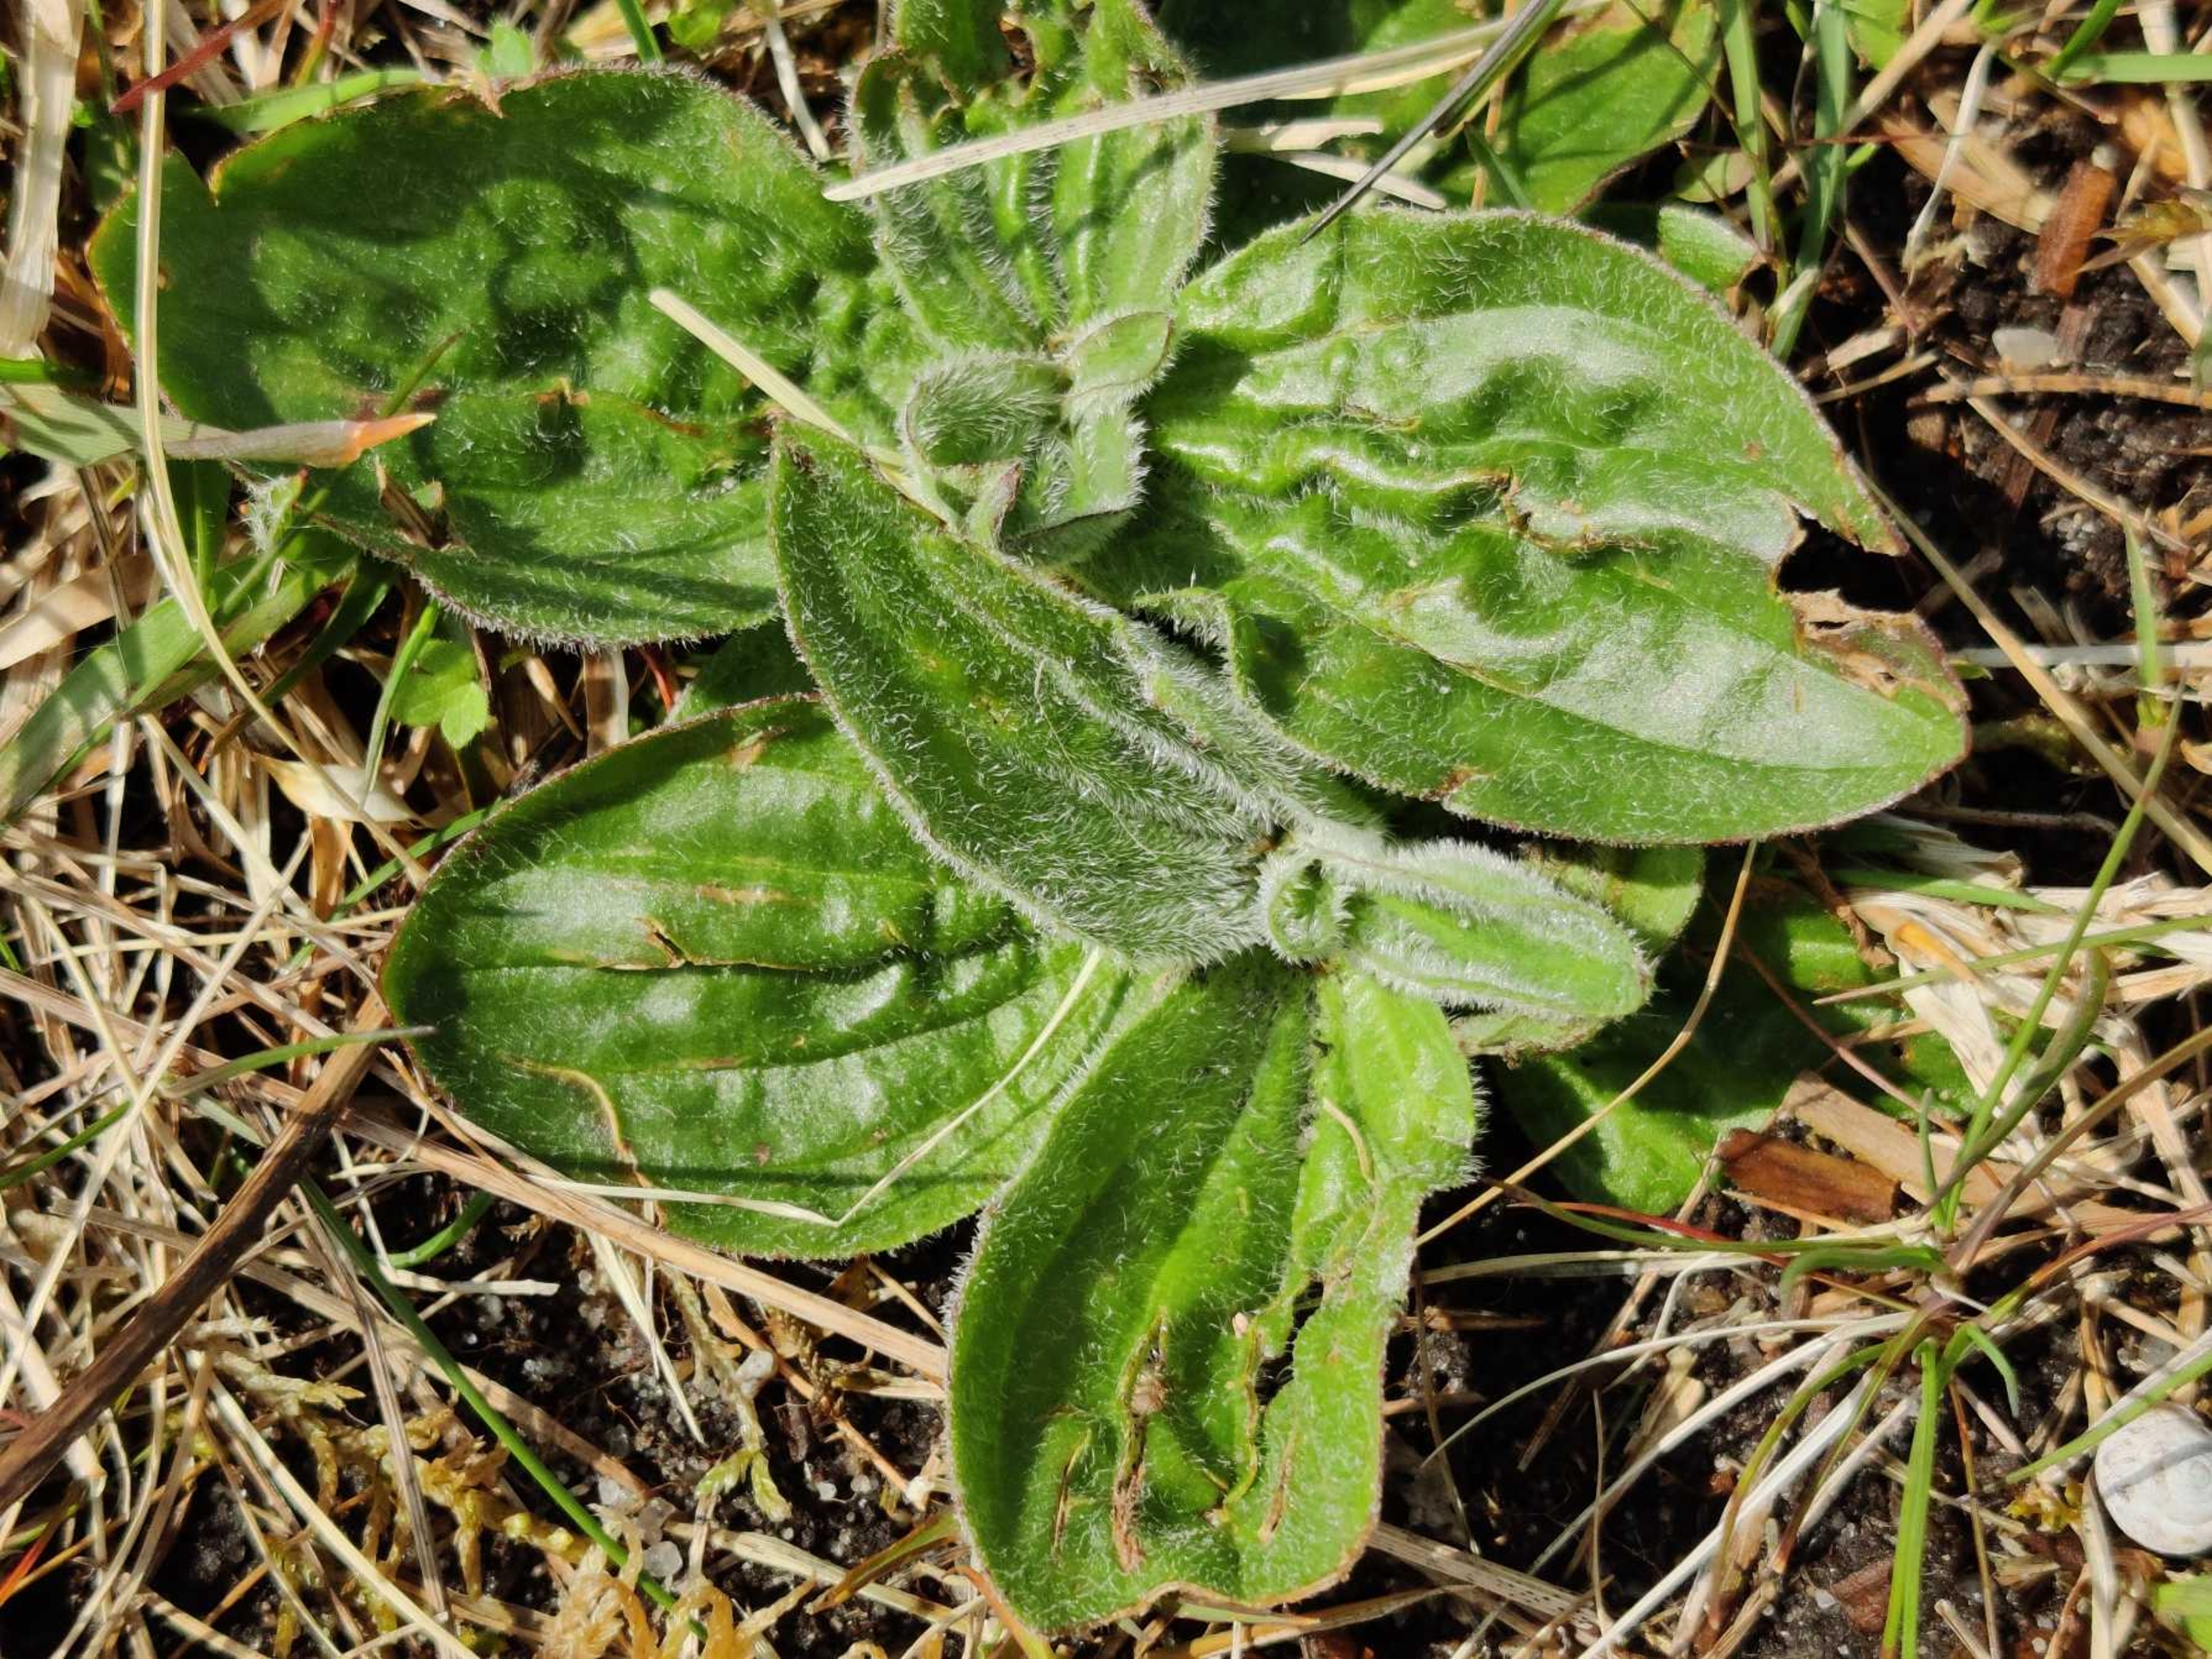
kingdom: Plantae
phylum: Tracheophyta
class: Magnoliopsida
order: Lamiales
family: Plantaginaceae
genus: Plantago
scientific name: Plantago media
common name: Dunet vejbred
